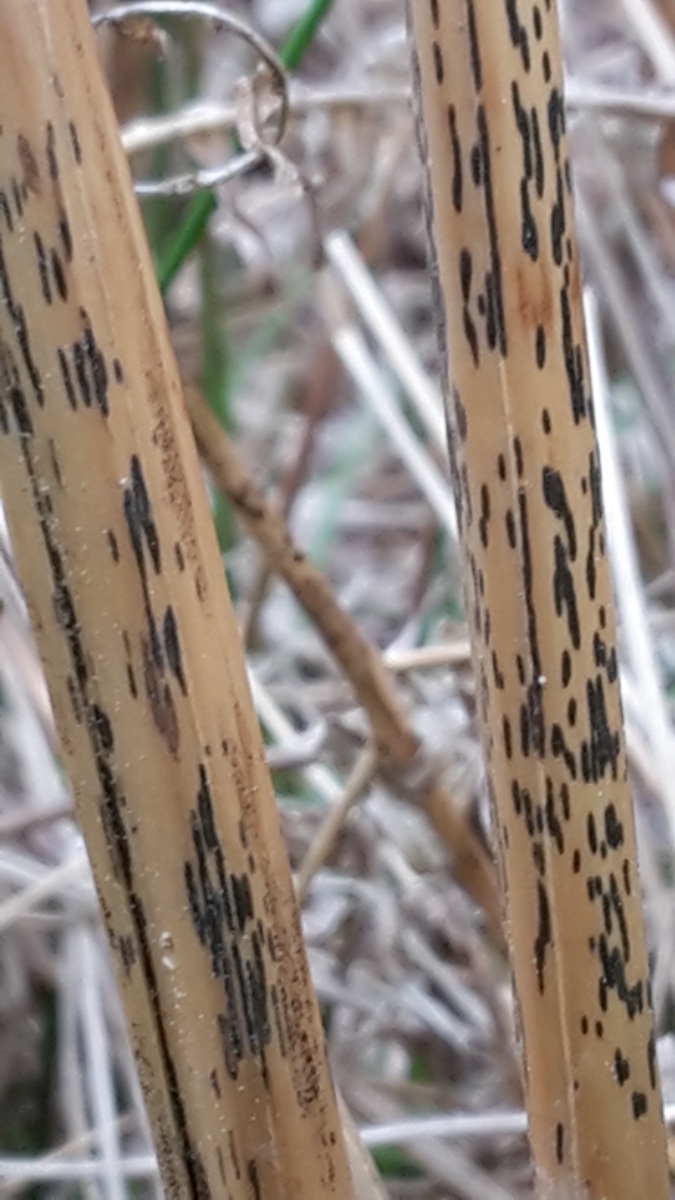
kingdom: Fungi
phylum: Ascomycota
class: Dothideomycetes
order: Pleosporales
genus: Rhopographus
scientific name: Rhopographus filicinus
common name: Bracken map
